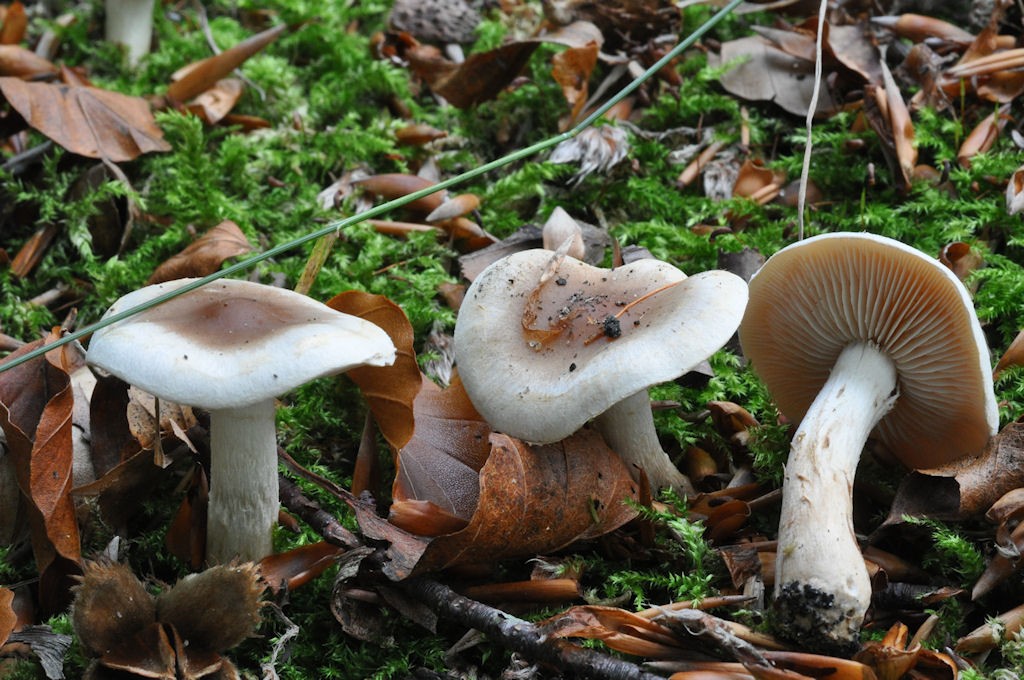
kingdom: Fungi
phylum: Basidiomycota
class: Agaricomycetes
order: Agaricales
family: Hymenogastraceae
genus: Hebeloma
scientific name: Hebeloma mesophaeum
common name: lerbrun tåreblad
